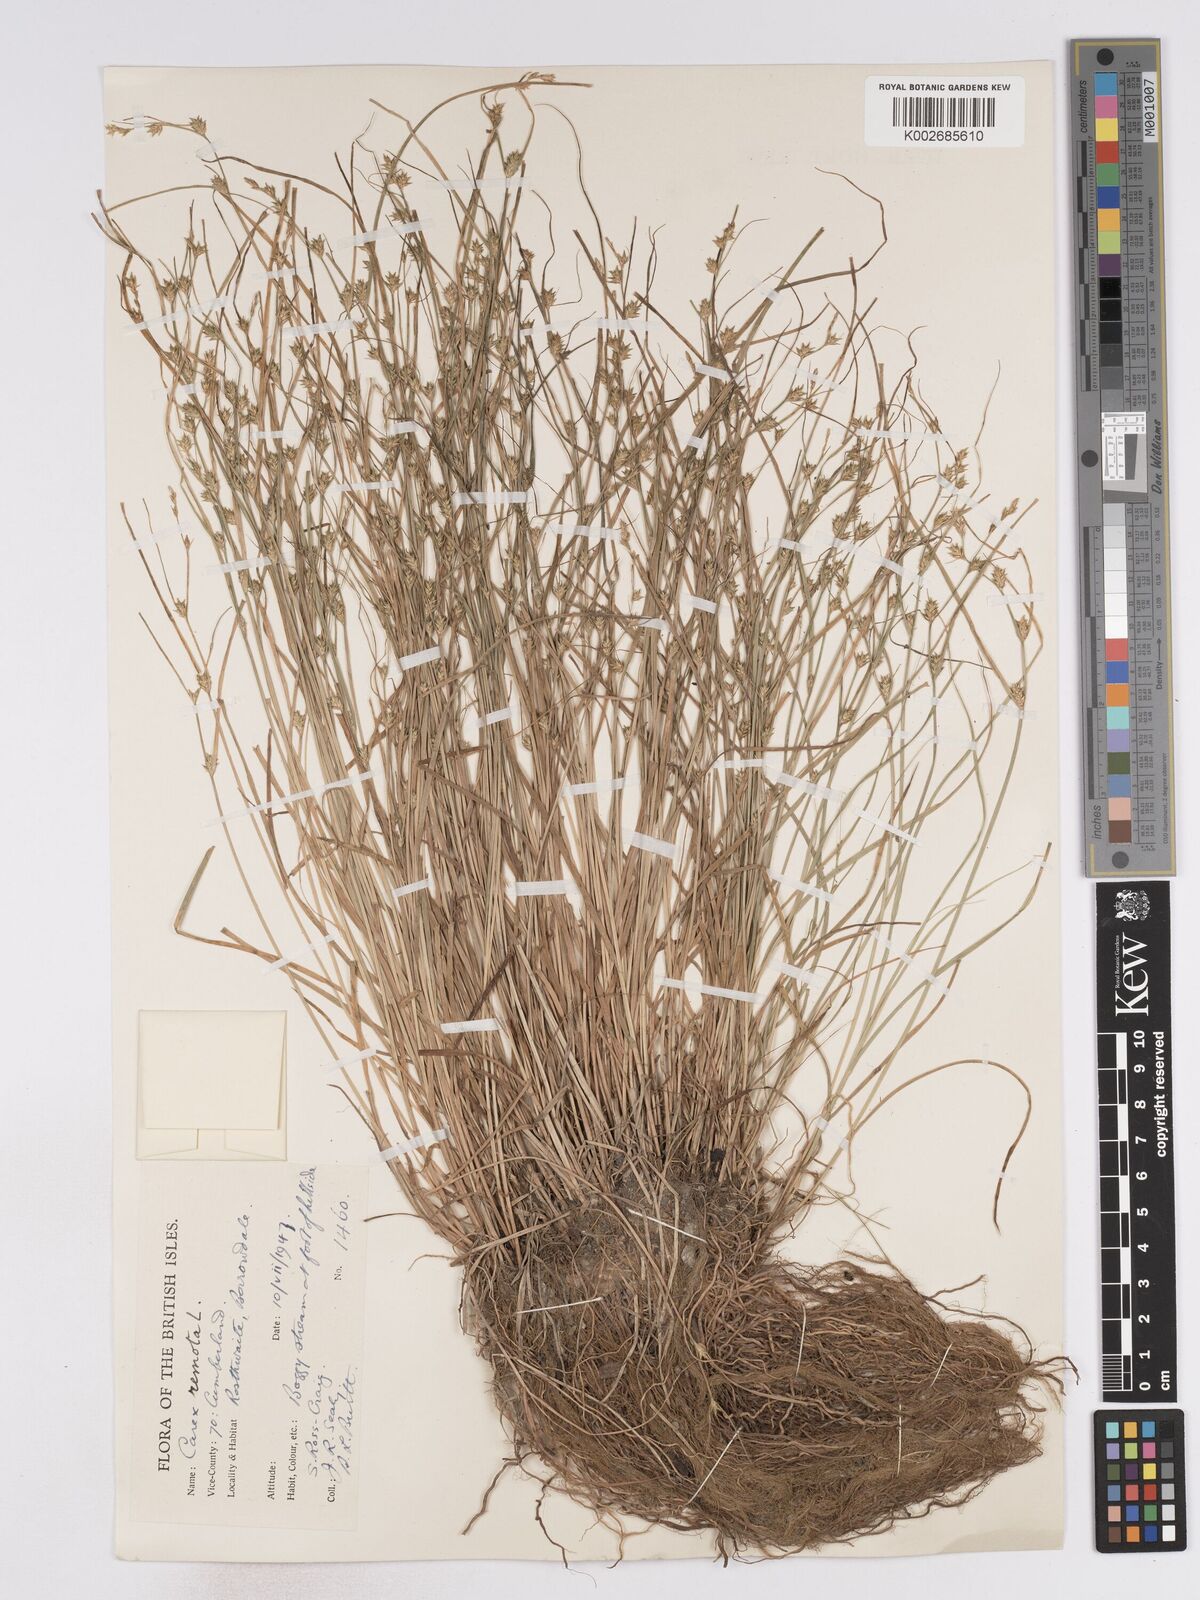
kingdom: Plantae
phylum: Tracheophyta
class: Liliopsida
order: Poales
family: Cyperaceae
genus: Carex
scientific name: Carex remota
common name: Remote sedge
